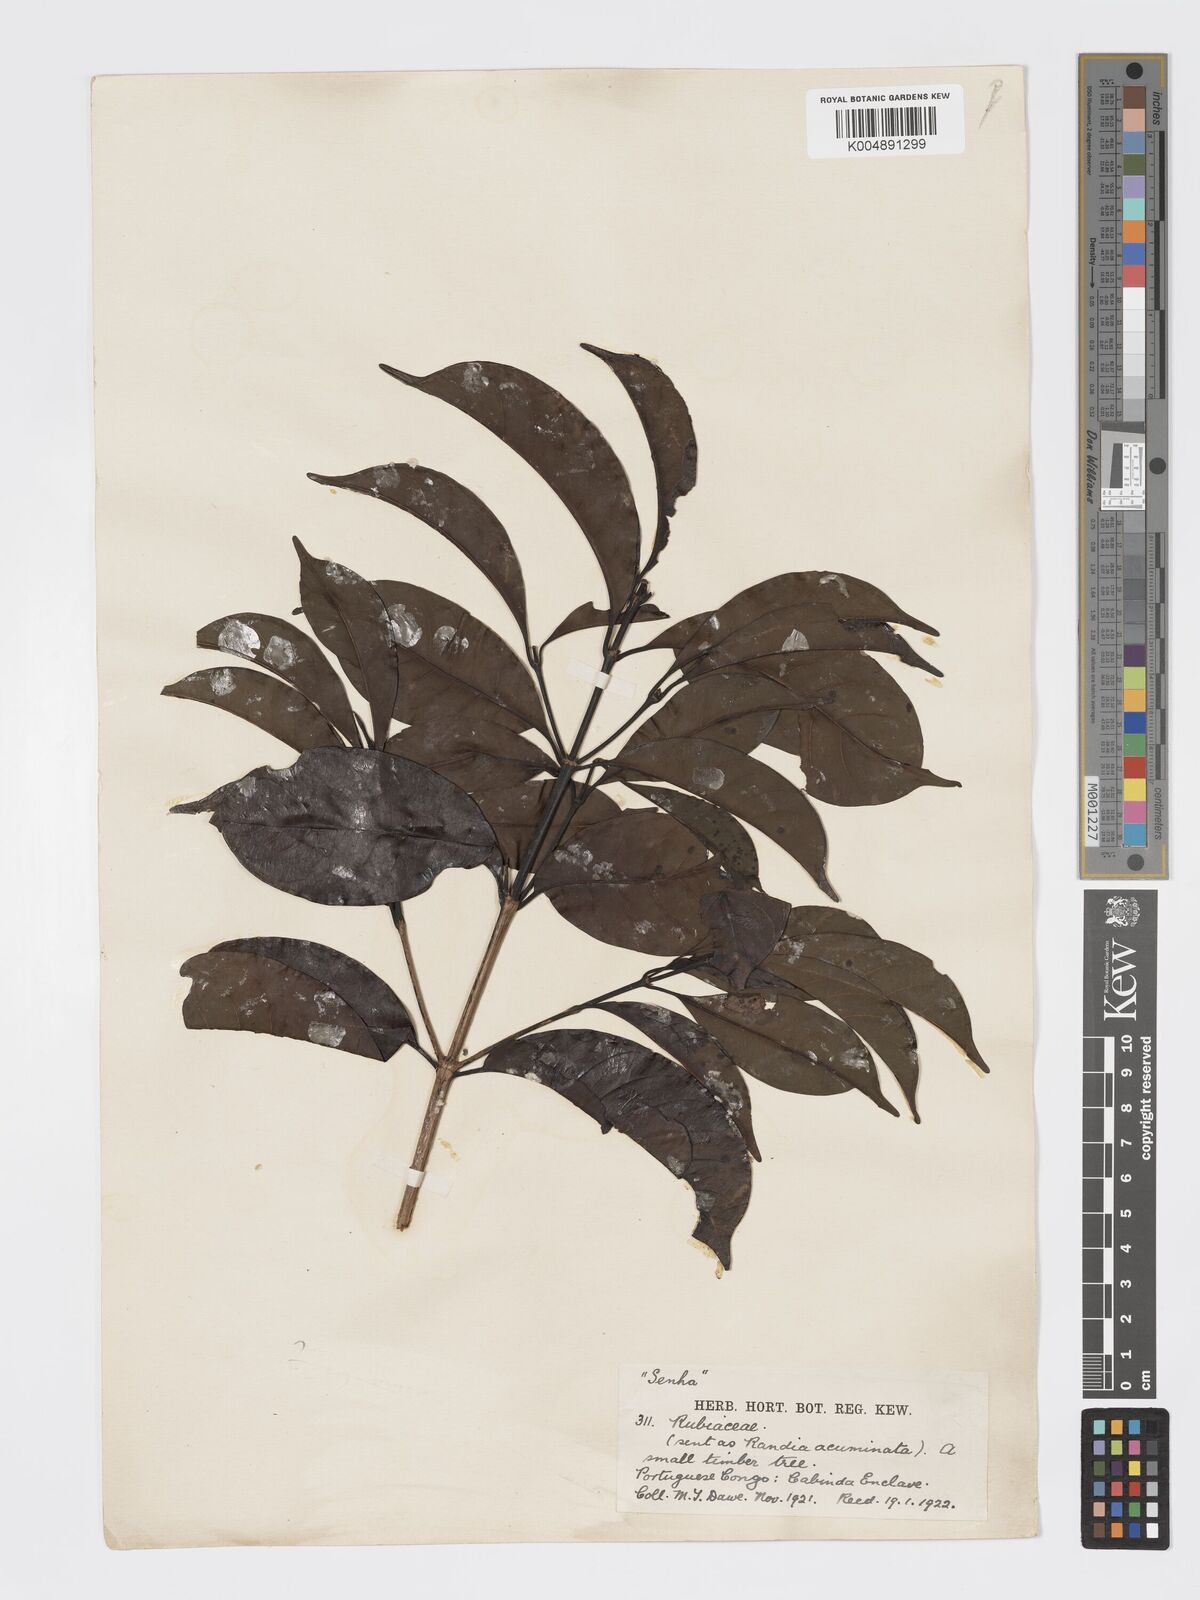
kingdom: Plantae
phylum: Tracheophyta
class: Magnoliopsida
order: Gentianales
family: Rubiaceae
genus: Aidia
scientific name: Aidia ochroleuca
